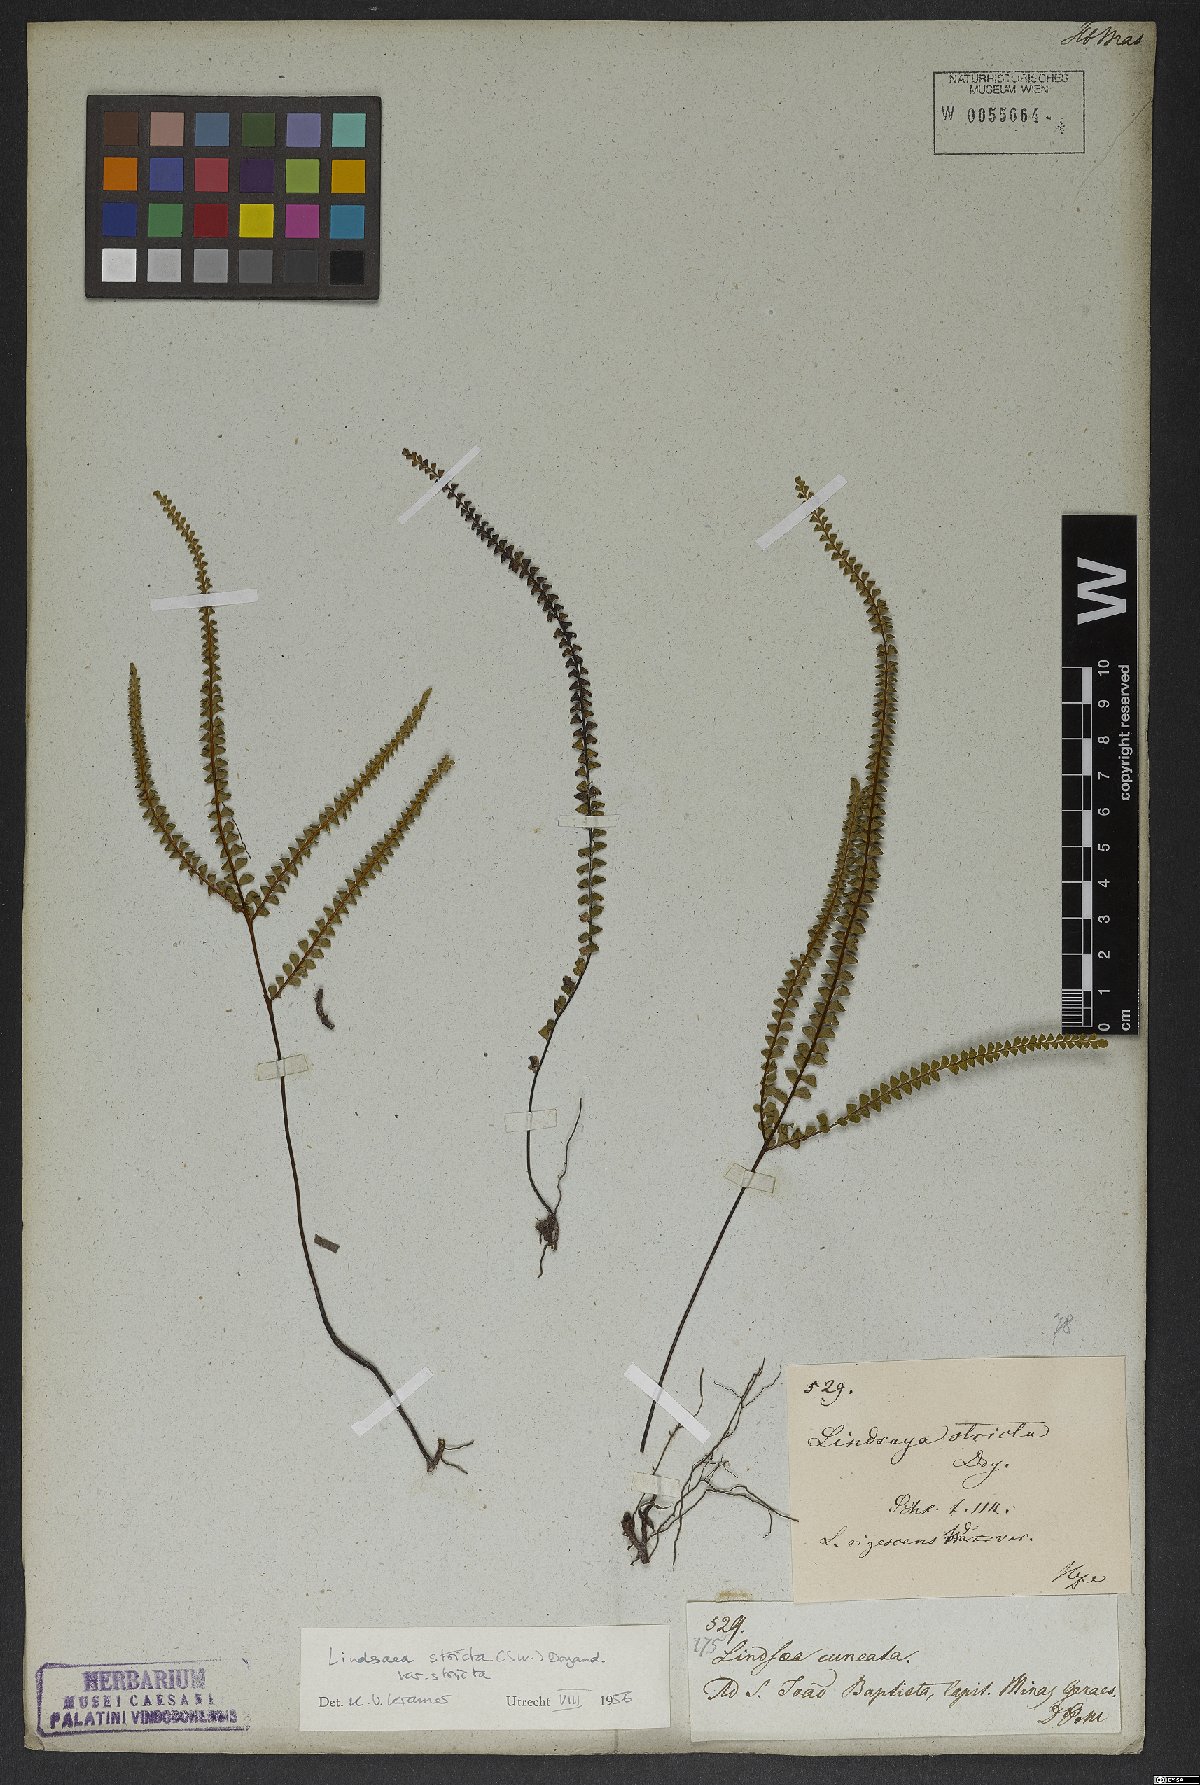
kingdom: Plantae
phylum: Tracheophyta
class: Polypodiopsida
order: Polypodiales
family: Lindsaeaceae
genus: Lindsaea
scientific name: Lindsaea stricta
